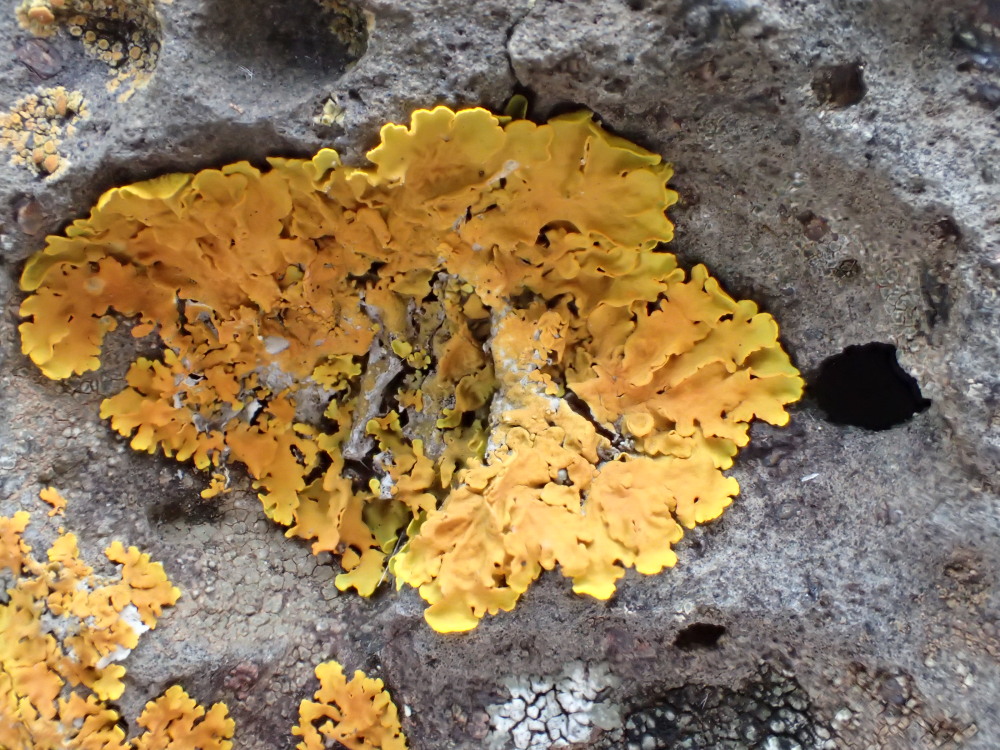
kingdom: Fungi
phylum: Ascomycota
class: Lecanoromycetes
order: Teloschistales
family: Teloschistaceae
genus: Xanthoria
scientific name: Xanthoria parietina
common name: almindelig væggelav
